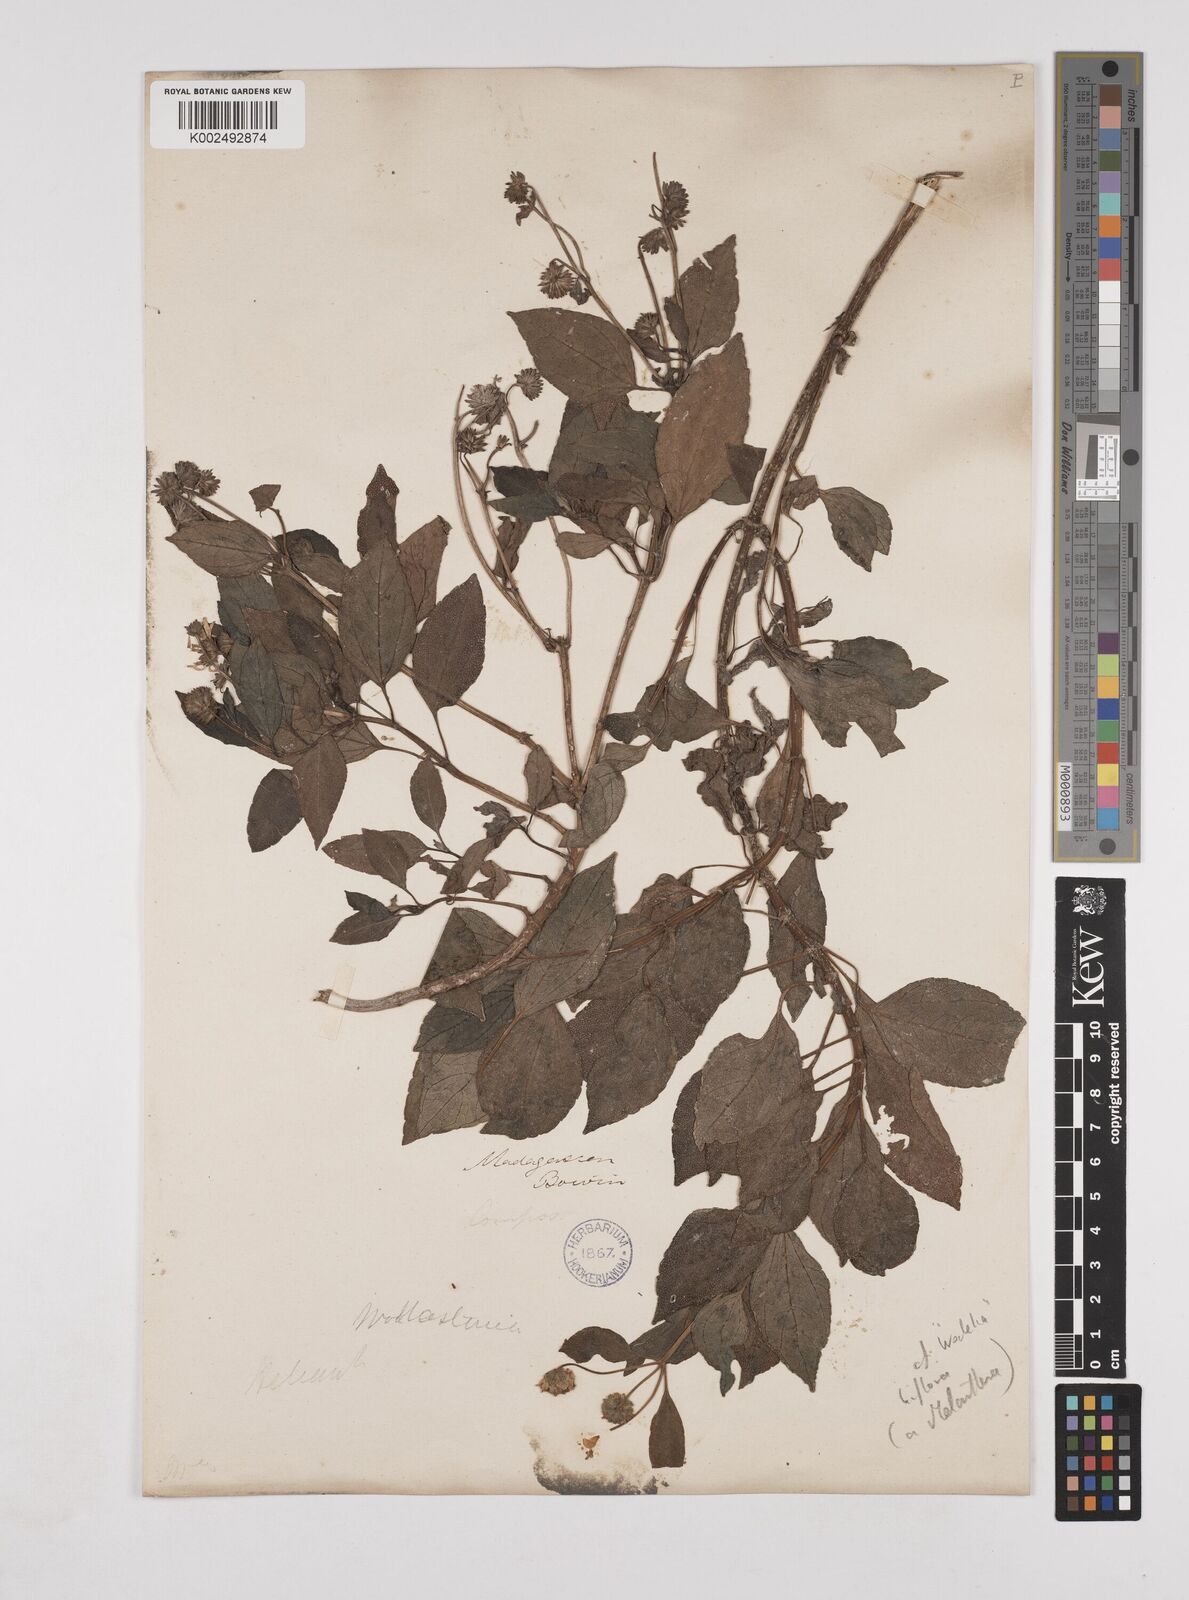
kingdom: Plantae
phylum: Tracheophyta
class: Magnoliopsida
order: Asterales
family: Asteraceae
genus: Wollastonia
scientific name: Wollastonia biflora
